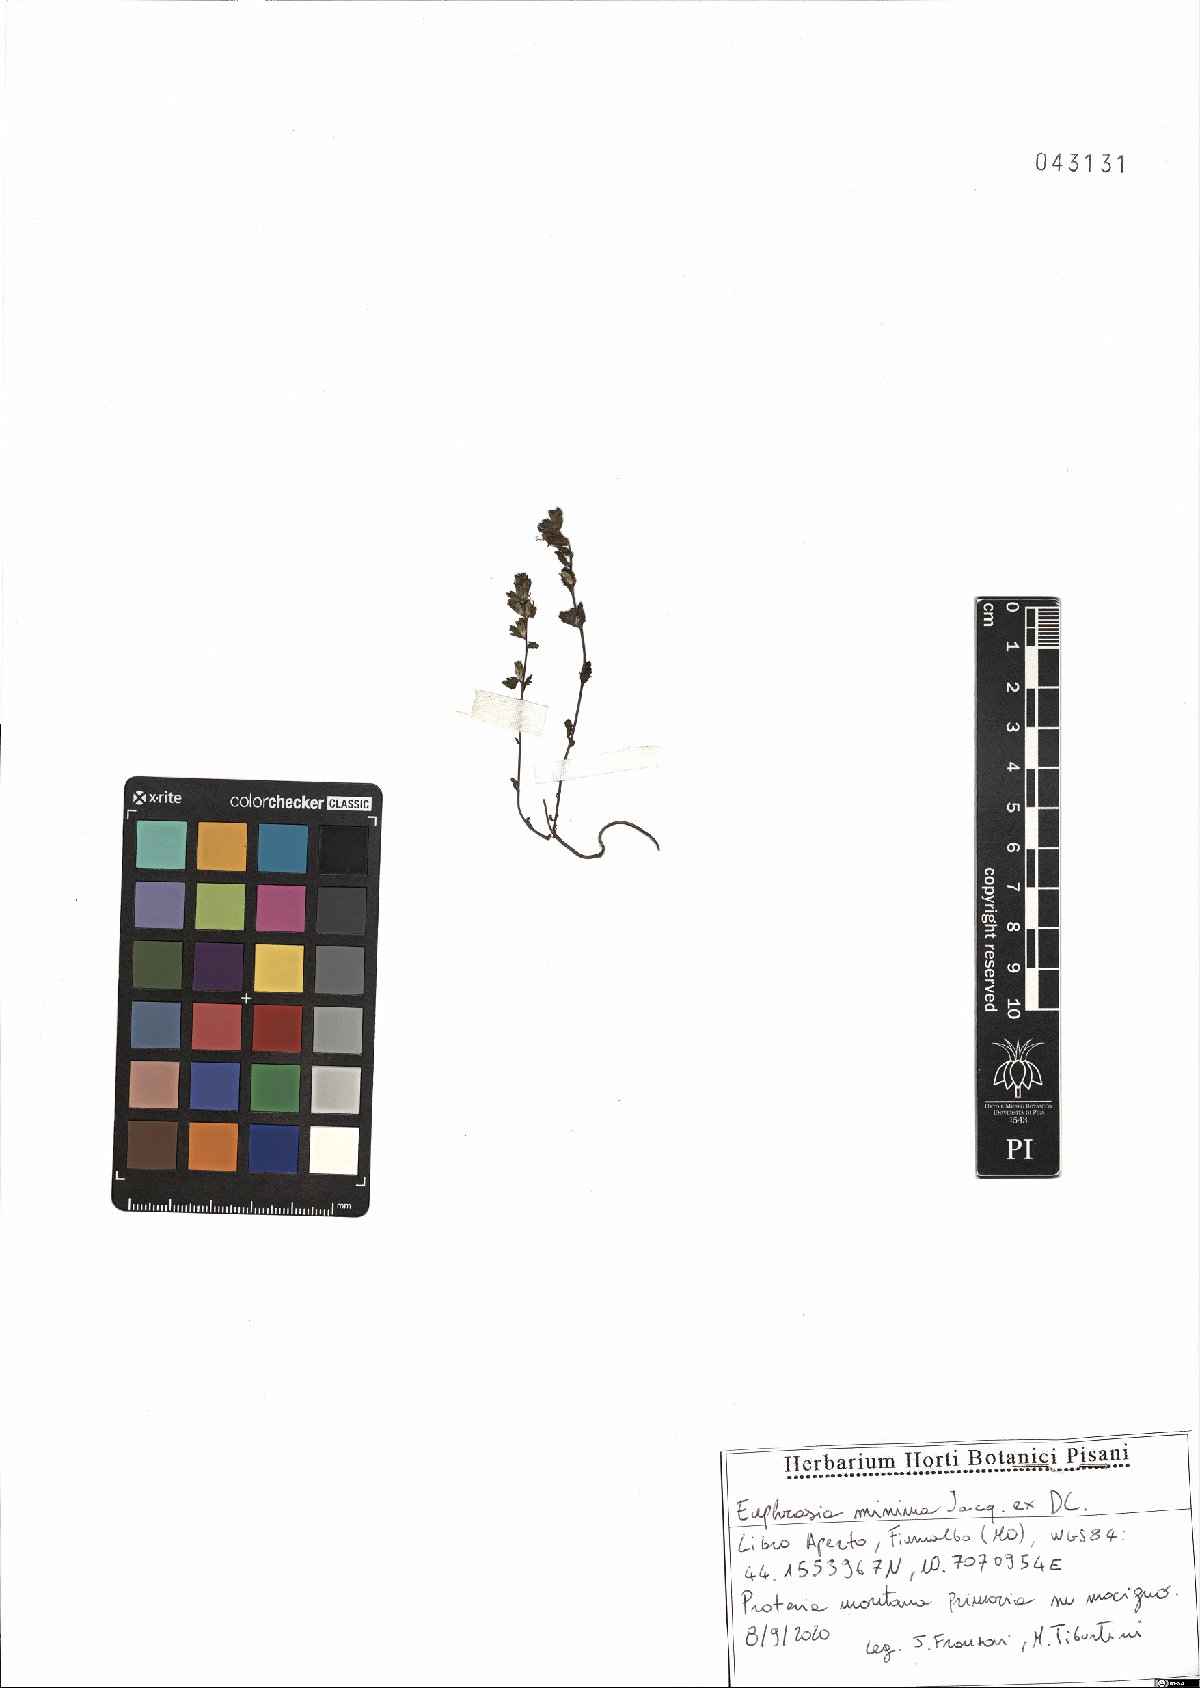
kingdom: Plantae
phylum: Tracheophyta
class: Magnoliopsida
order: Lamiales
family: Orobanchaceae
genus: Euphrasia
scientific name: Euphrasia minima
